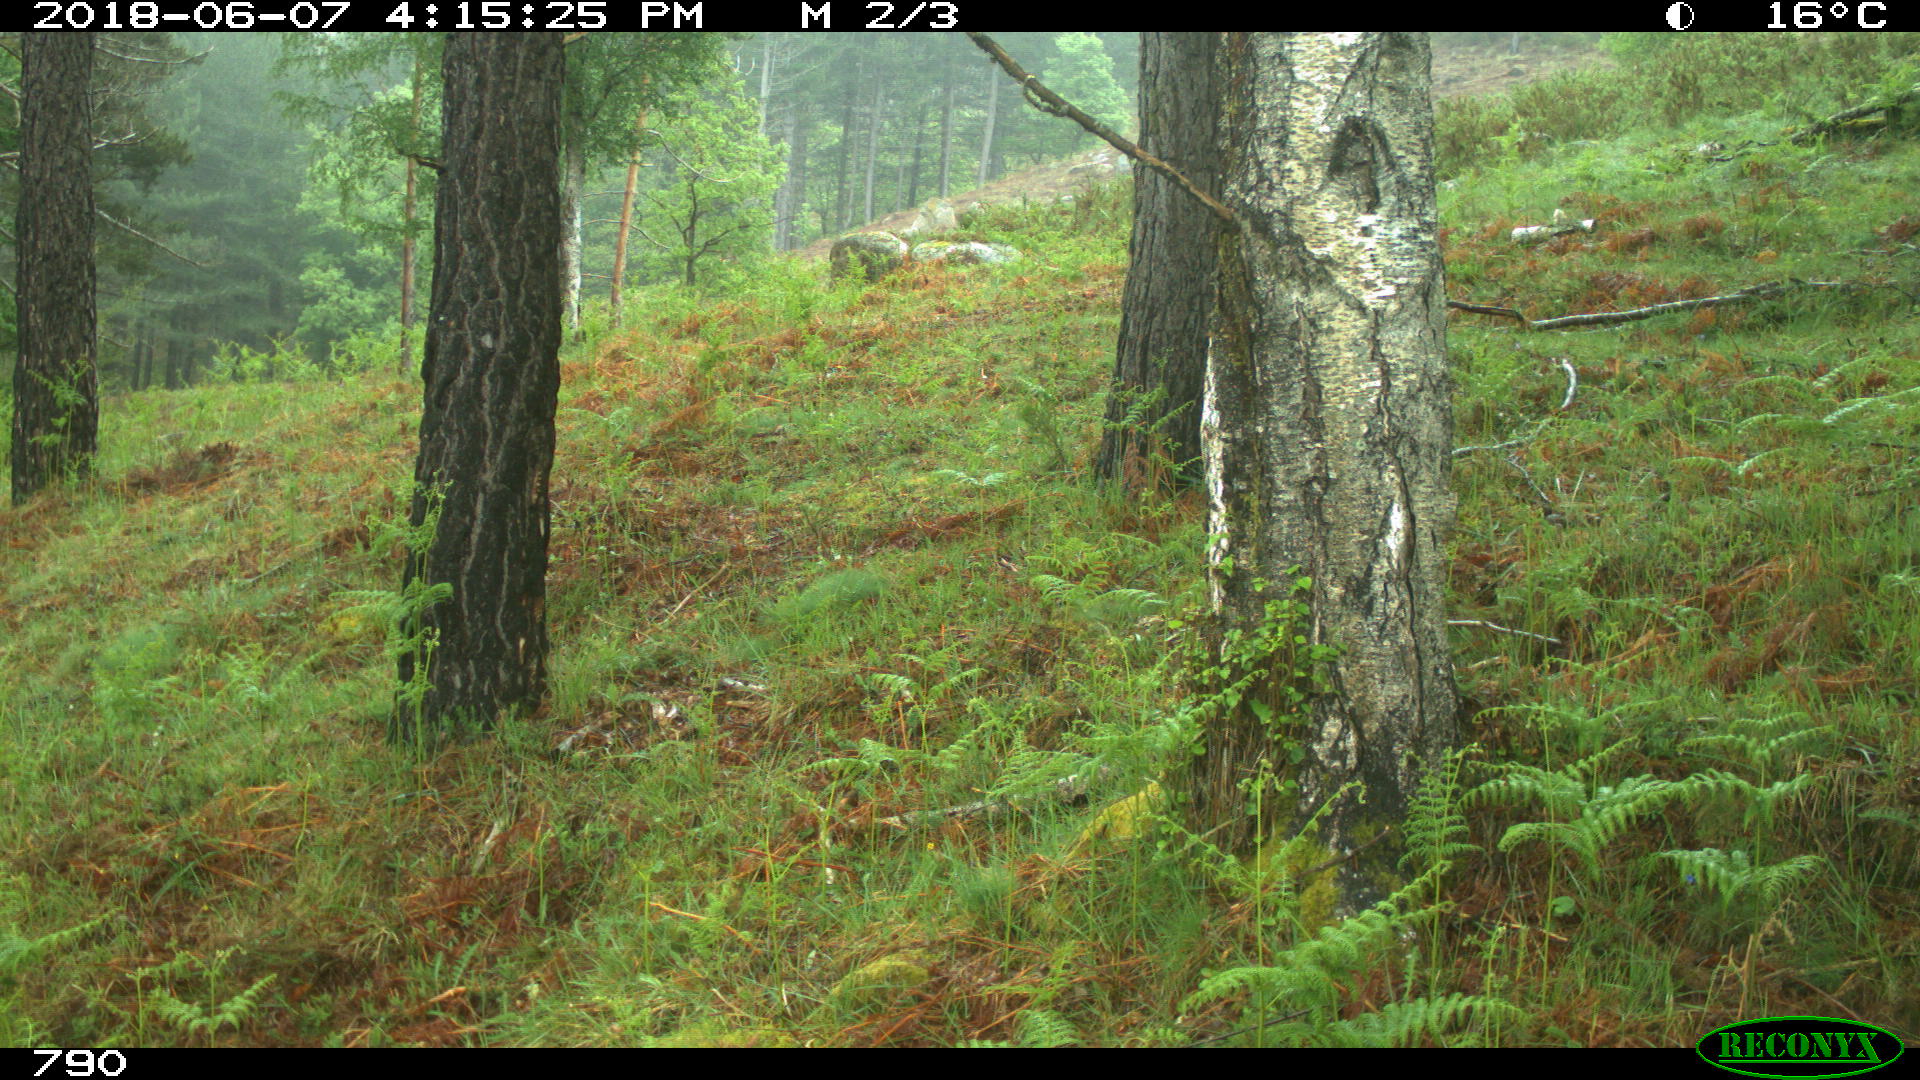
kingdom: Animalia
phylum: Chordata
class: Mammalia
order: Perissodactyla
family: Equidae
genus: Equus
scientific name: Equus caballus
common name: Horse
